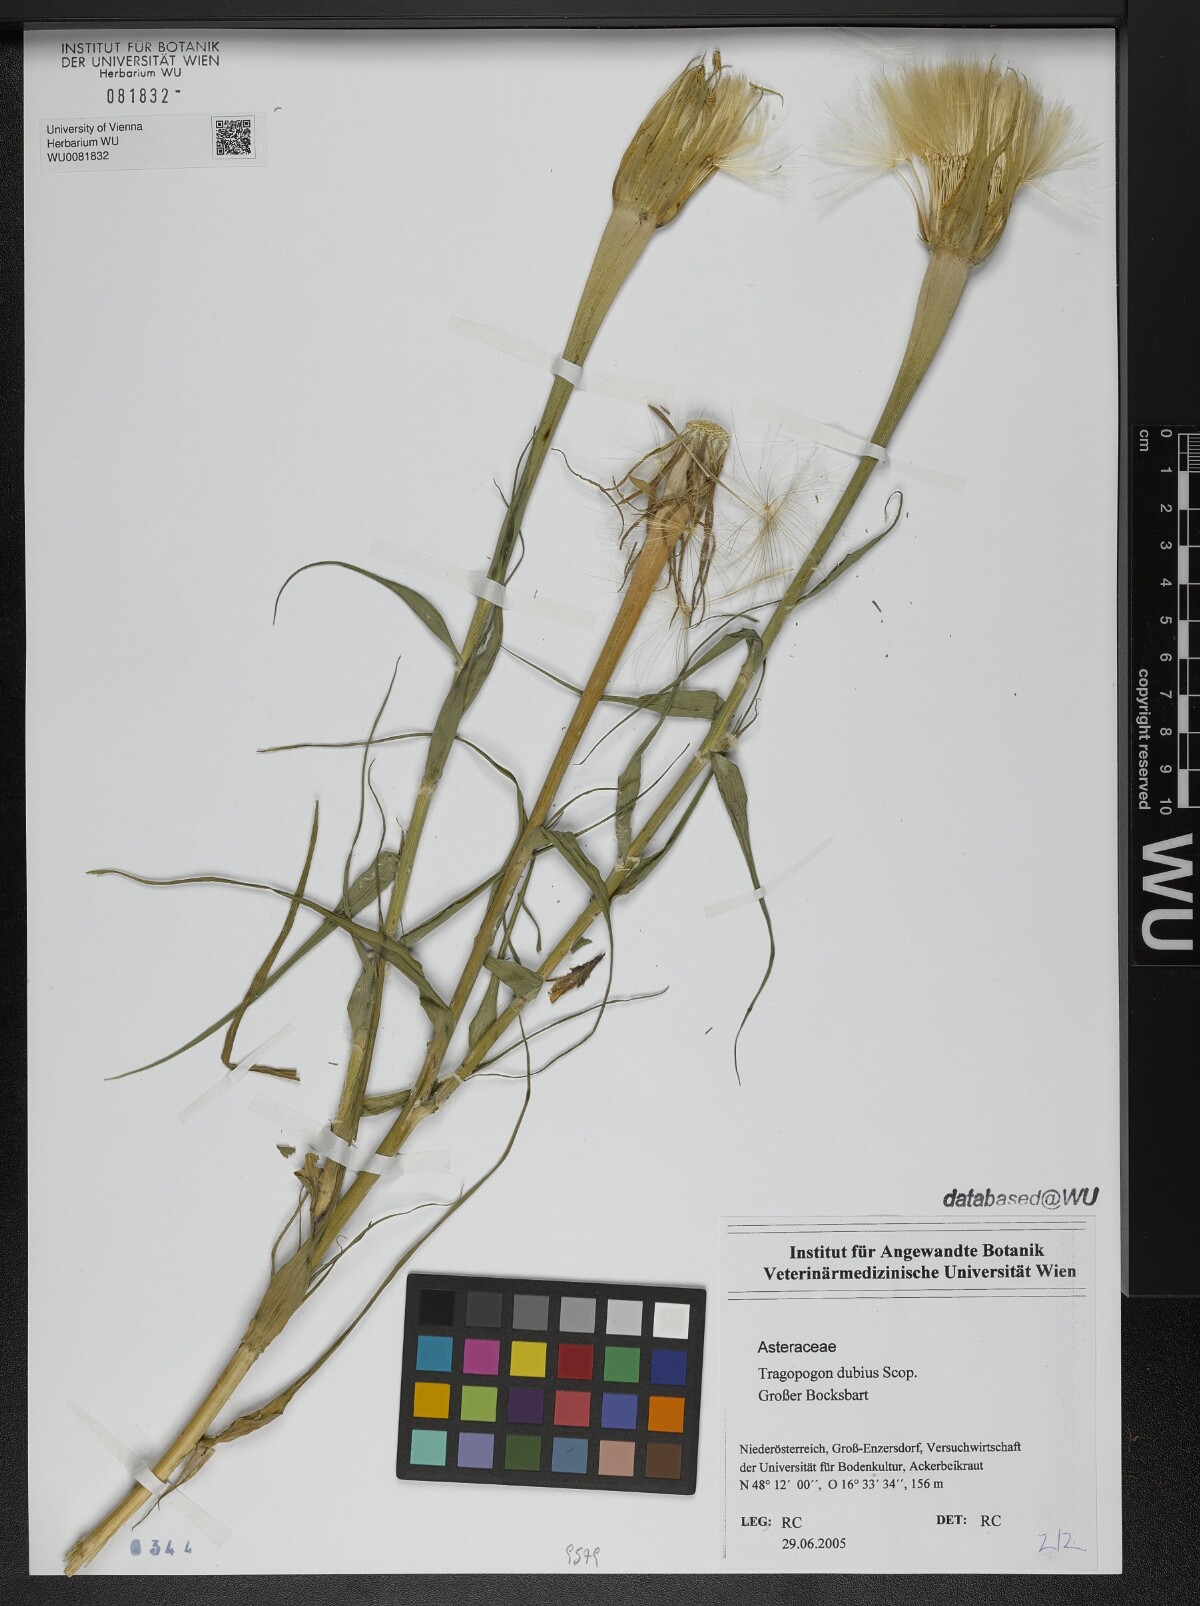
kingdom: Plantae
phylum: Tracheophyta
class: Magnoliopsida
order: Asterales
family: Asteraceae
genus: Tragopogon
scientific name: Tragopogon dubius
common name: Yellow salsify
